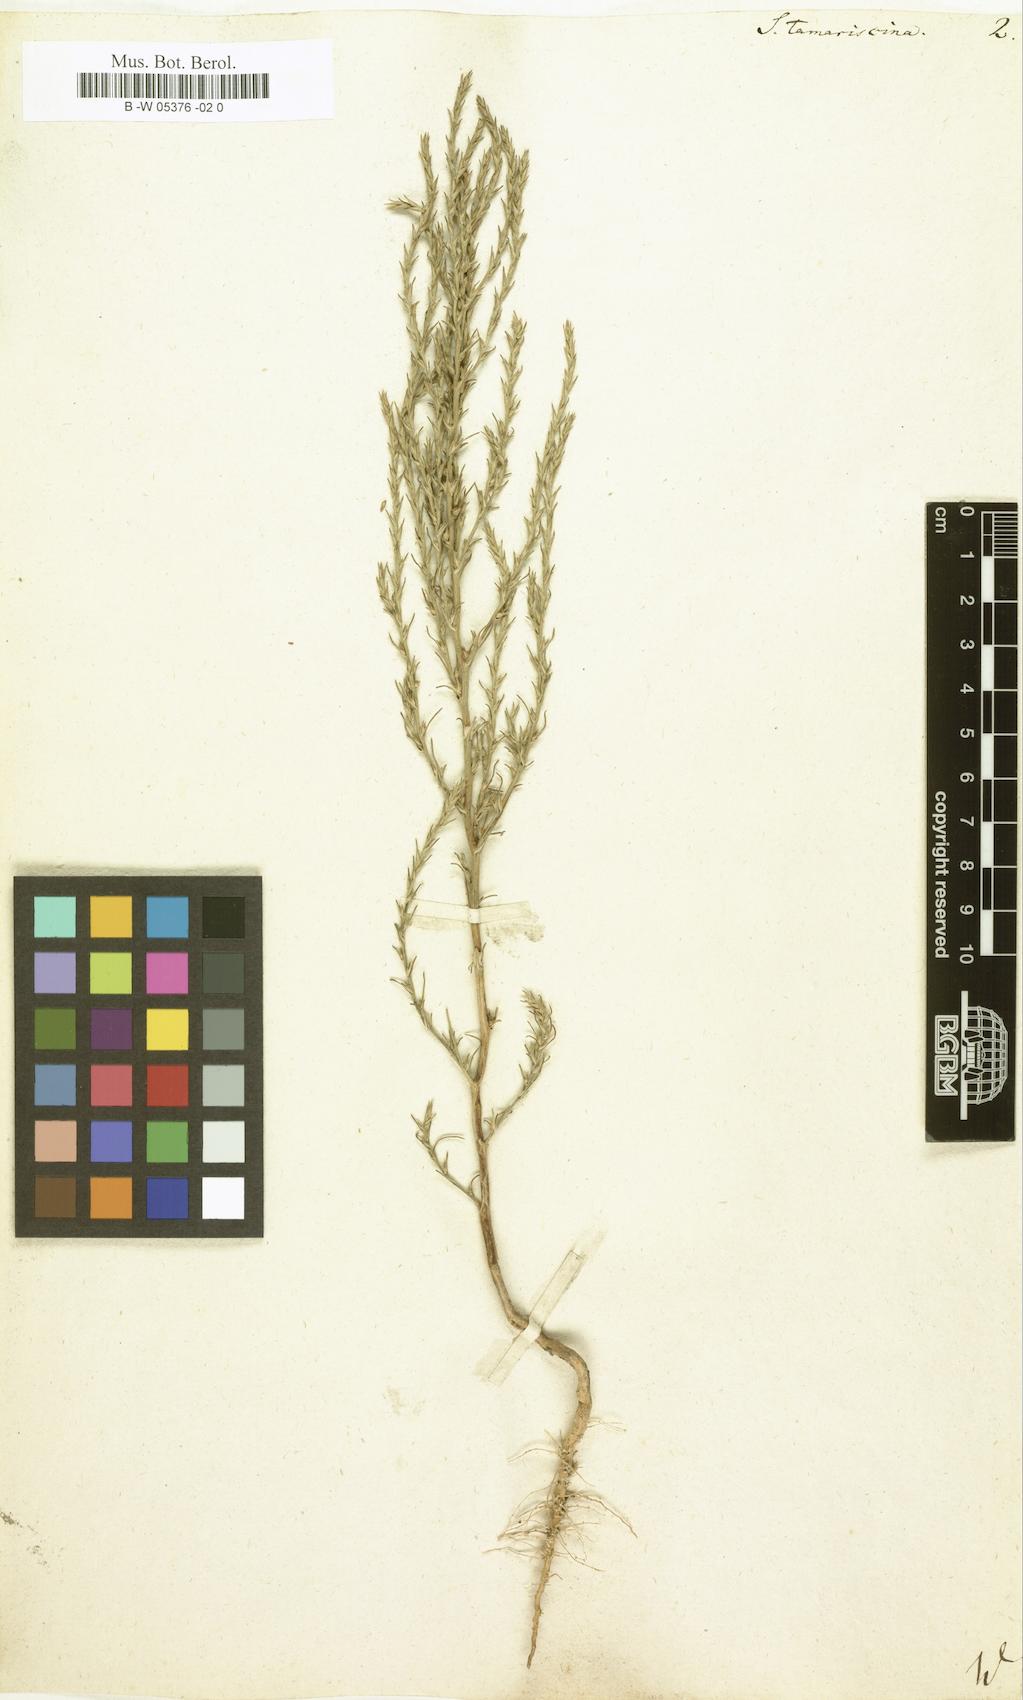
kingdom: Plantae
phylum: Tracheophyta
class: Magnoliopsida
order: Caryophyllales
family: Amaranthaceae
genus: Salsola
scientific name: Salsola tamariscina
